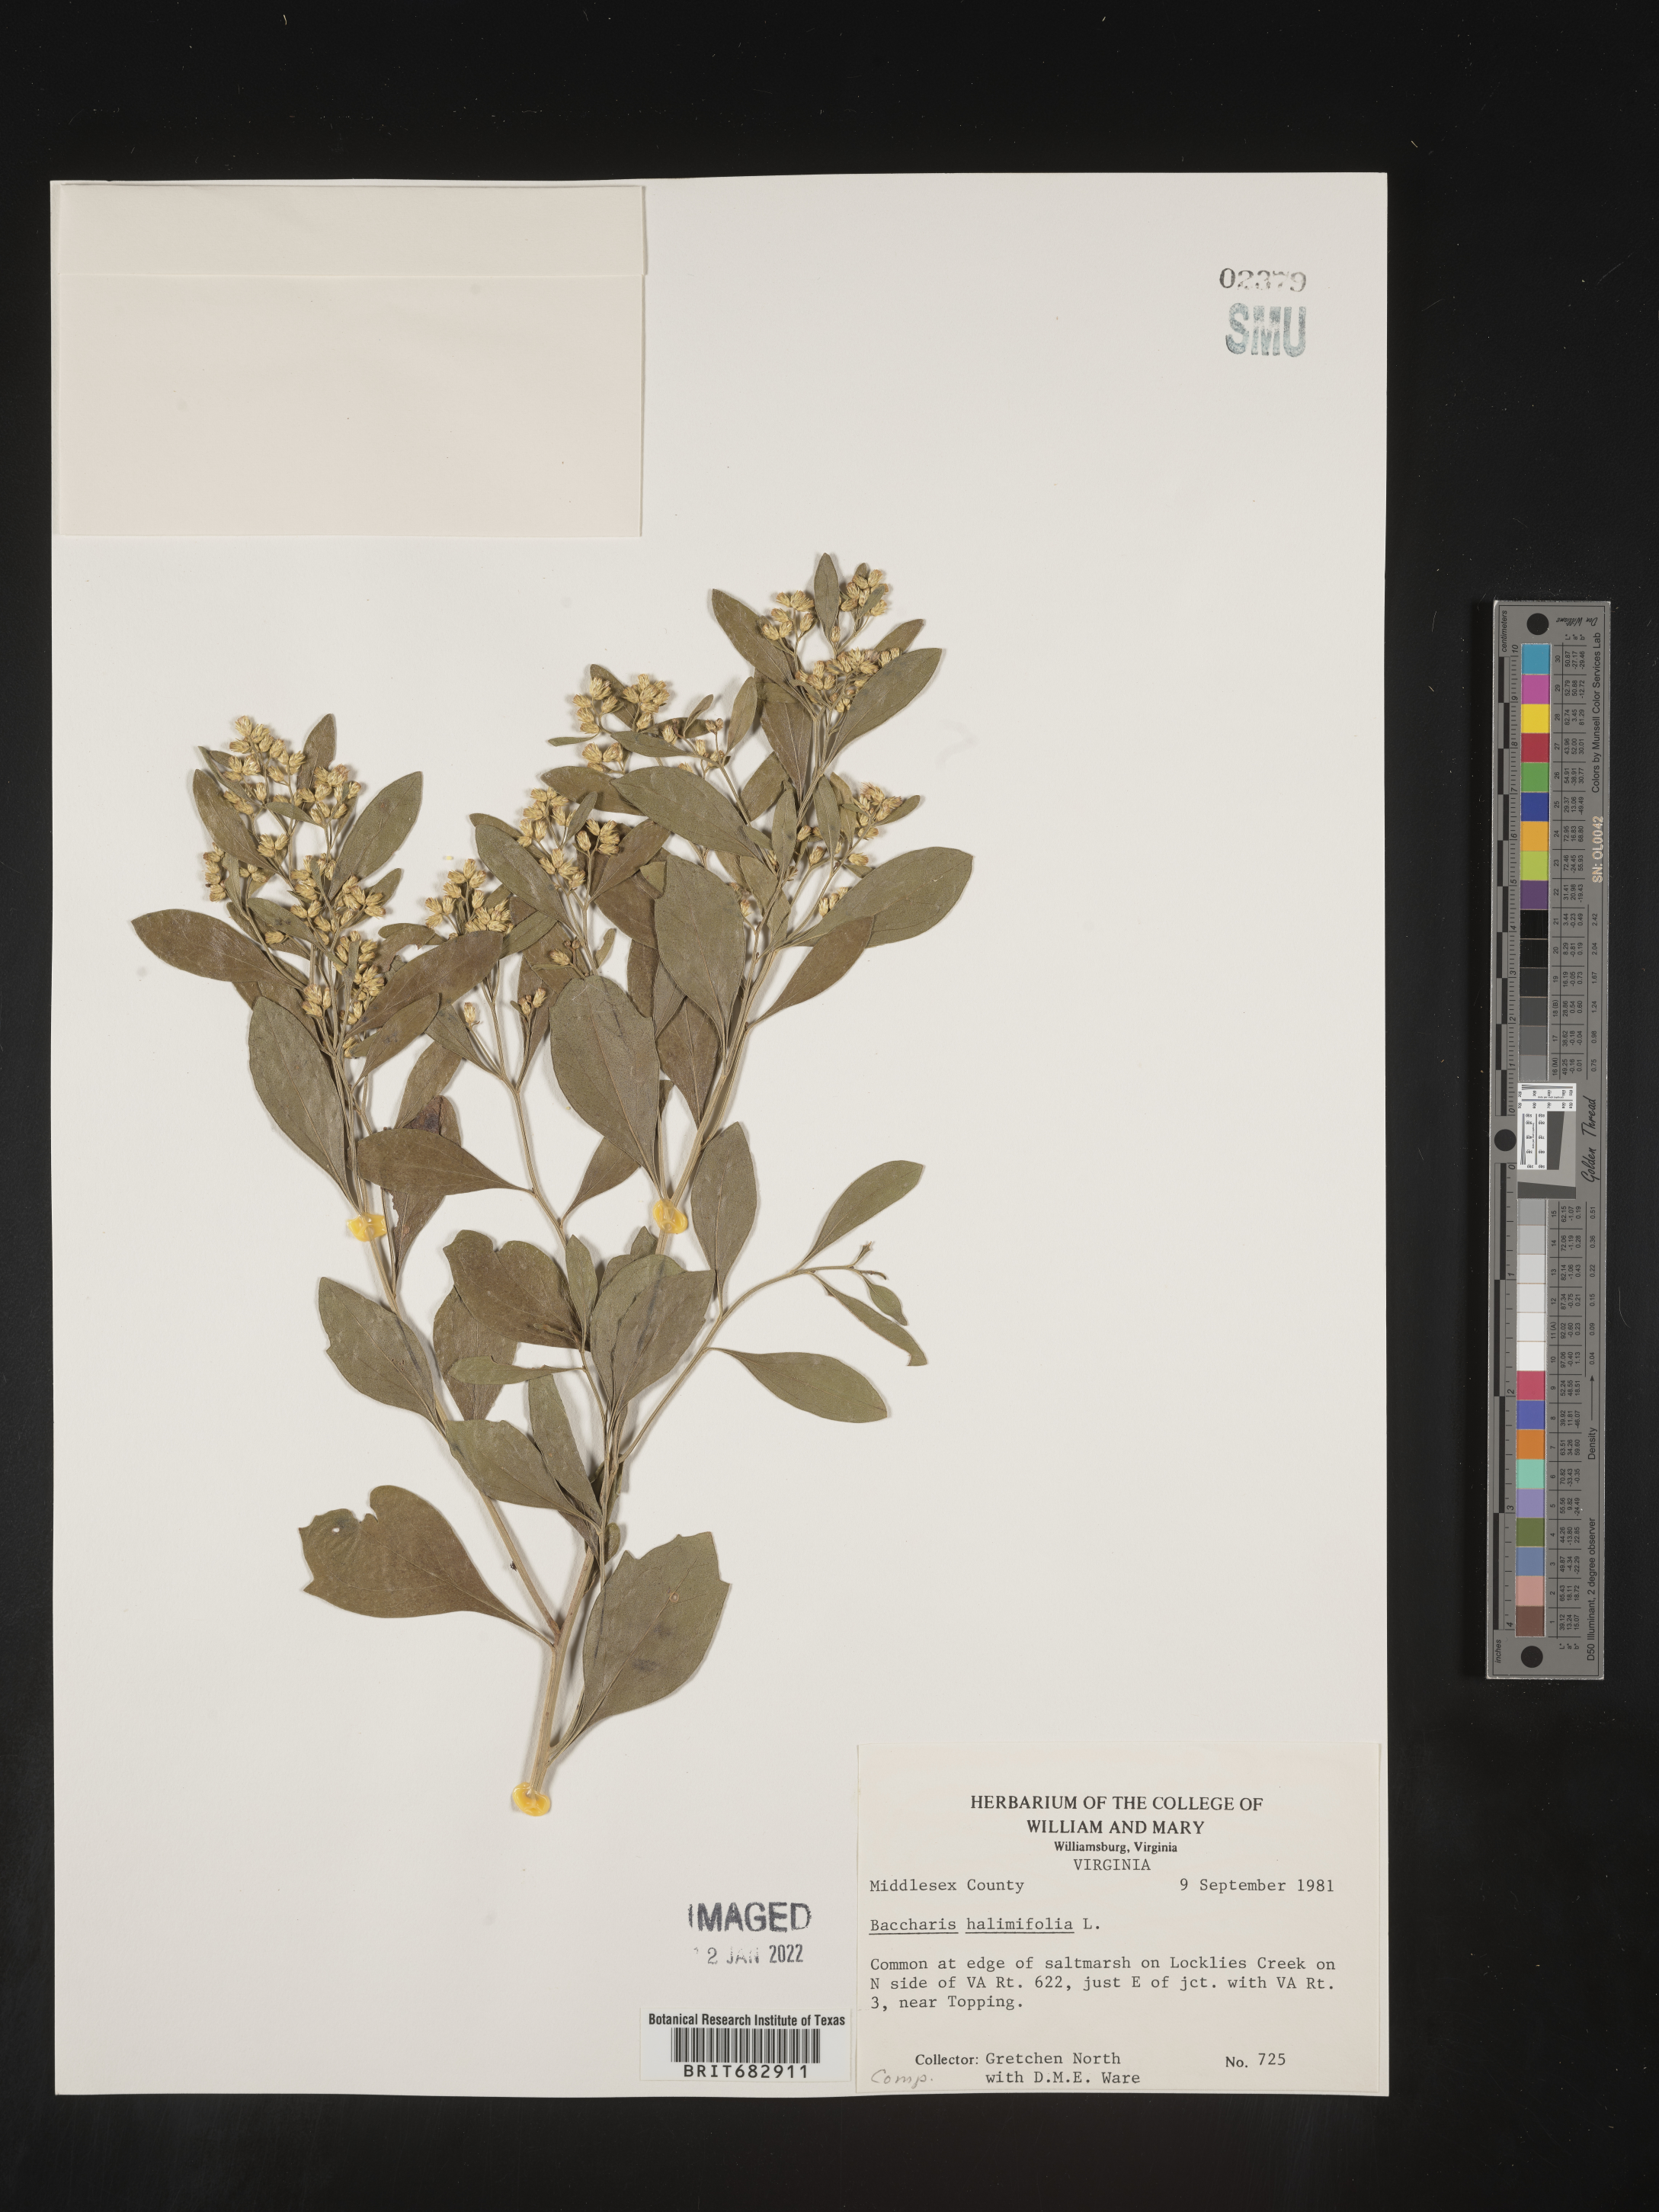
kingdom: Plantae
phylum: Tracheophyta
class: Magnoliopsida
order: Asterales
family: Asteraceae
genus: Nidorella
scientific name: Nidorella ivifolia
